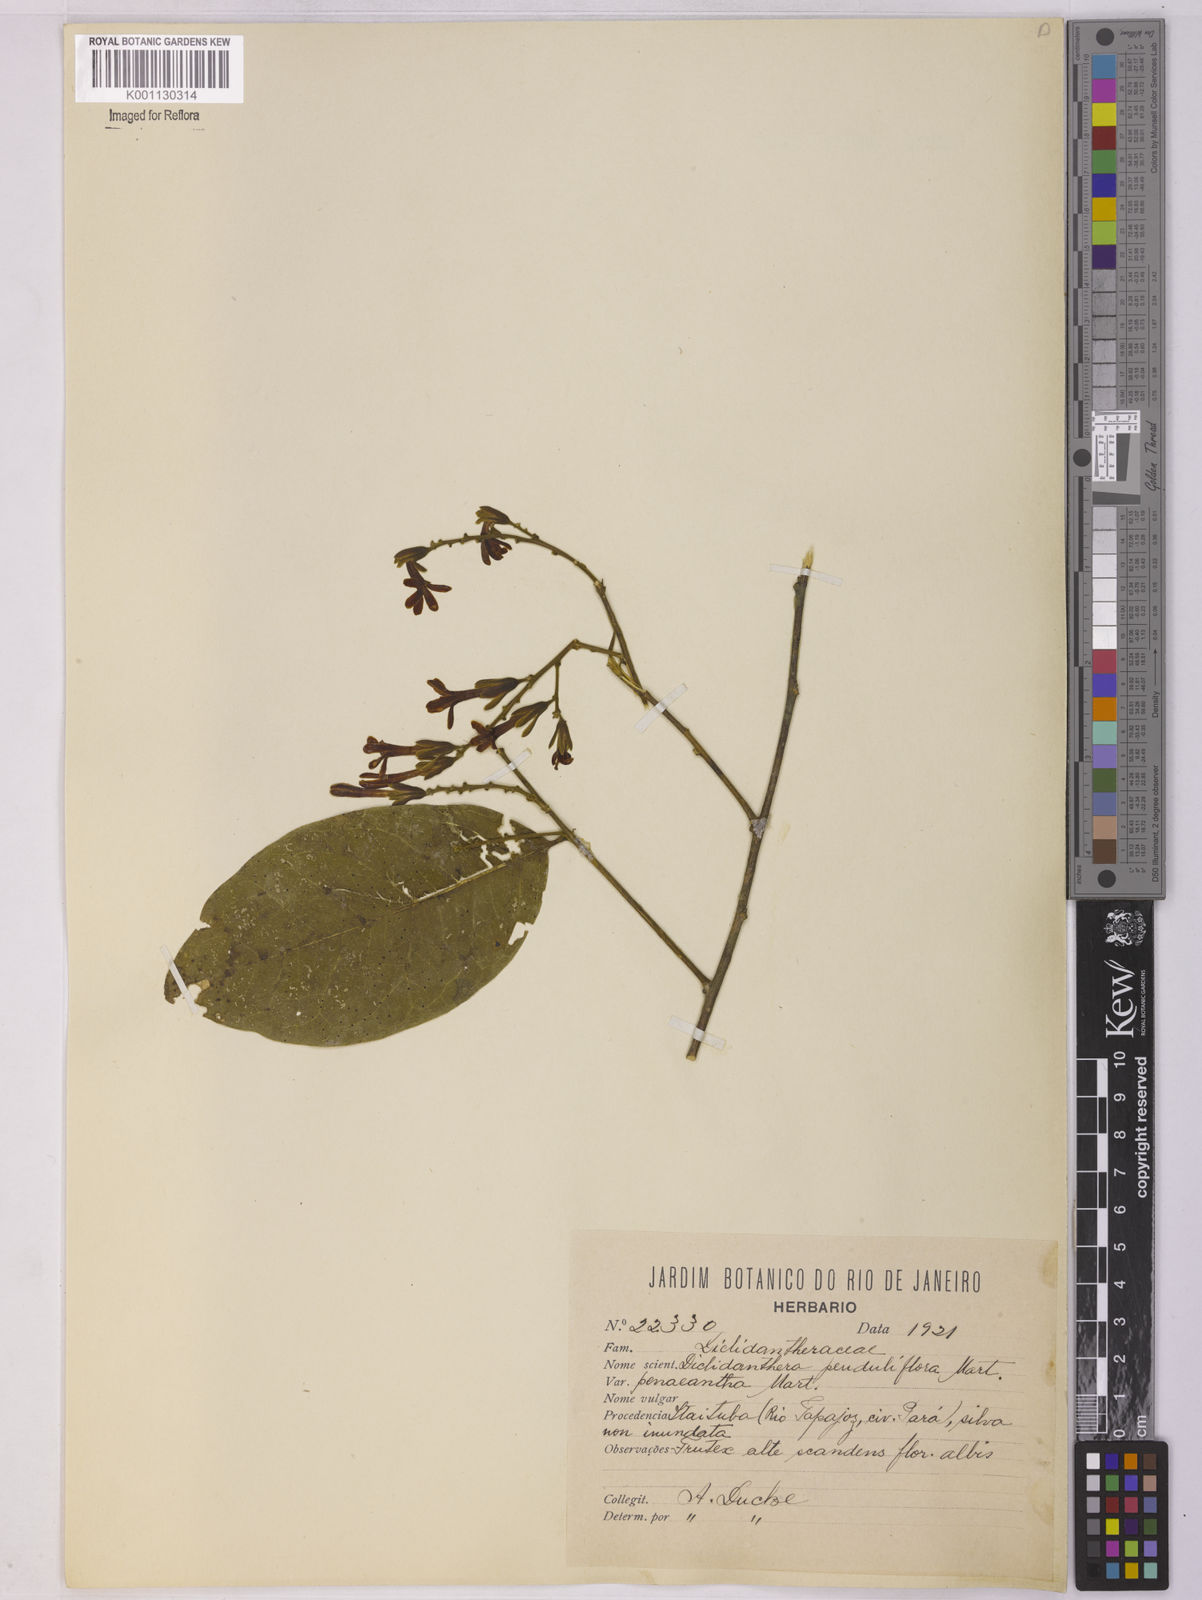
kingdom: Plantae
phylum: Tracheophyta
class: Magnoliopsida
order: Fabales
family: Polygalaceae
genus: Diclidanthera
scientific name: Diclidanthera penduliflora
